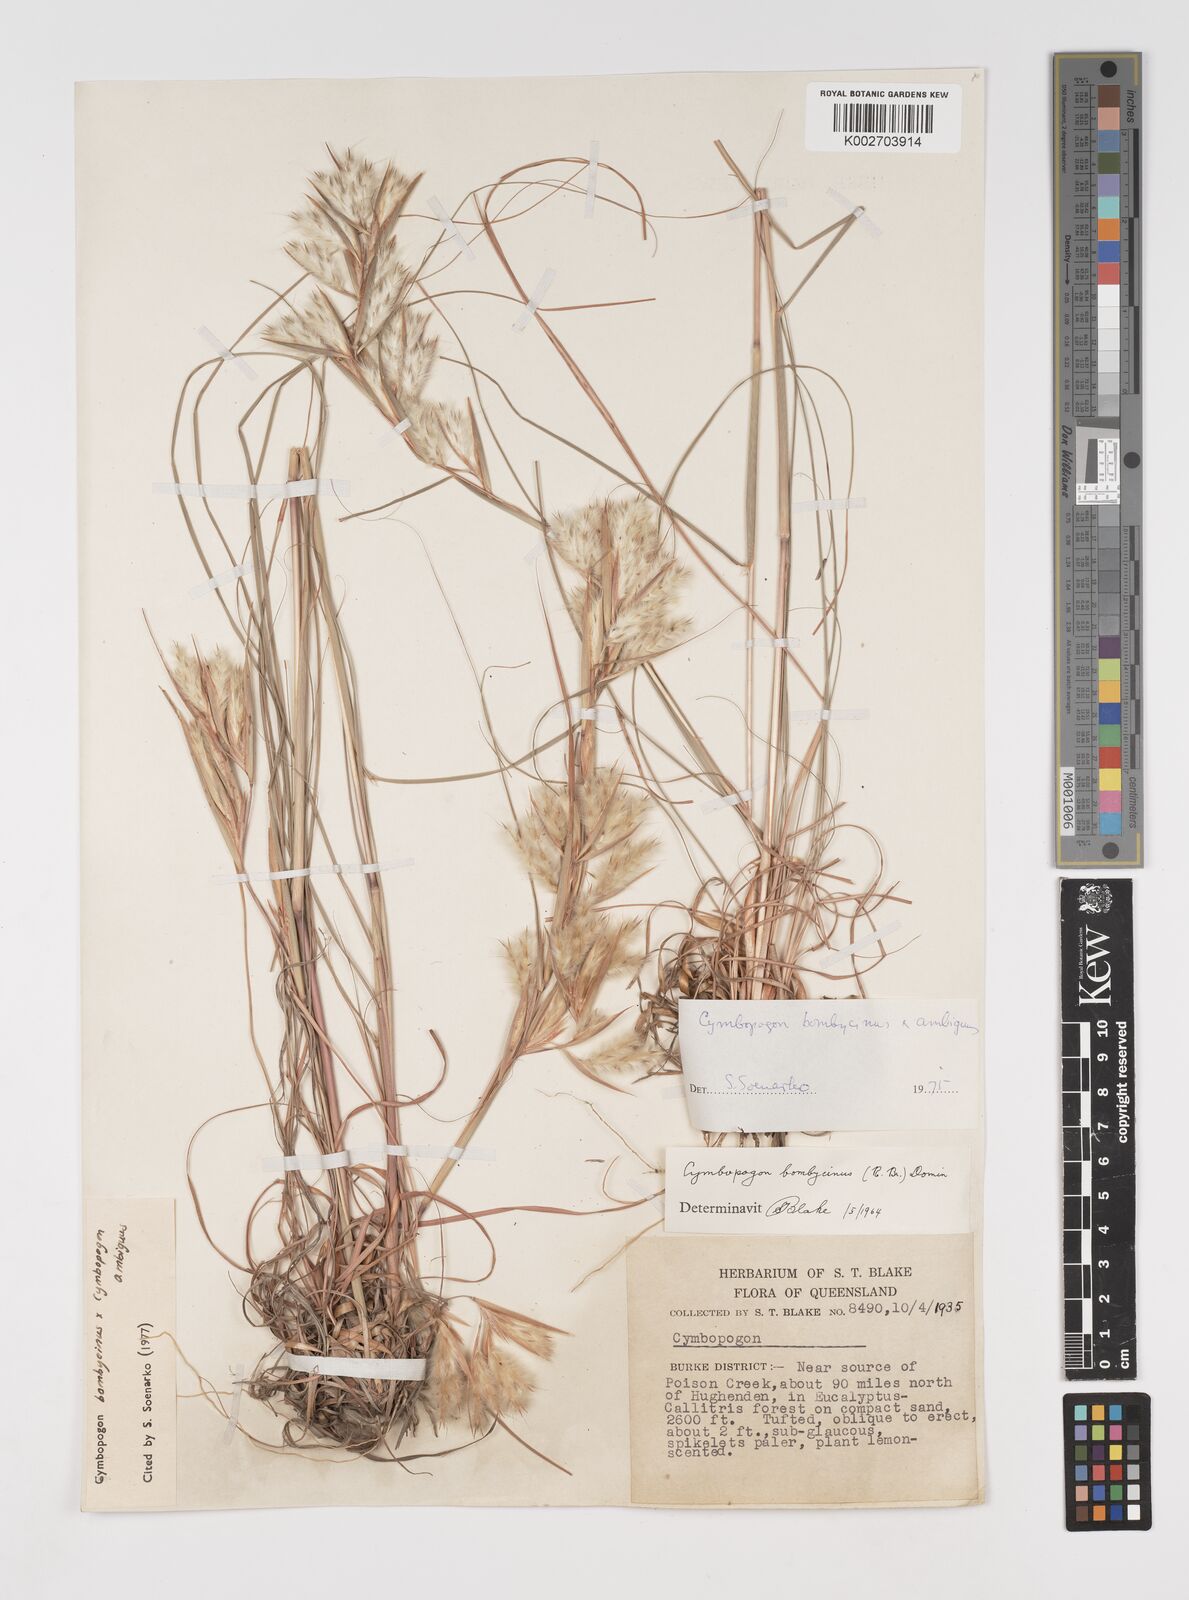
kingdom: Plantae
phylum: Tracheophyta
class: Liliopsida
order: Poales
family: Poaceae
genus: Cymbopogon
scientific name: Cymbopogon bombycinus
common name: Citronella grass
